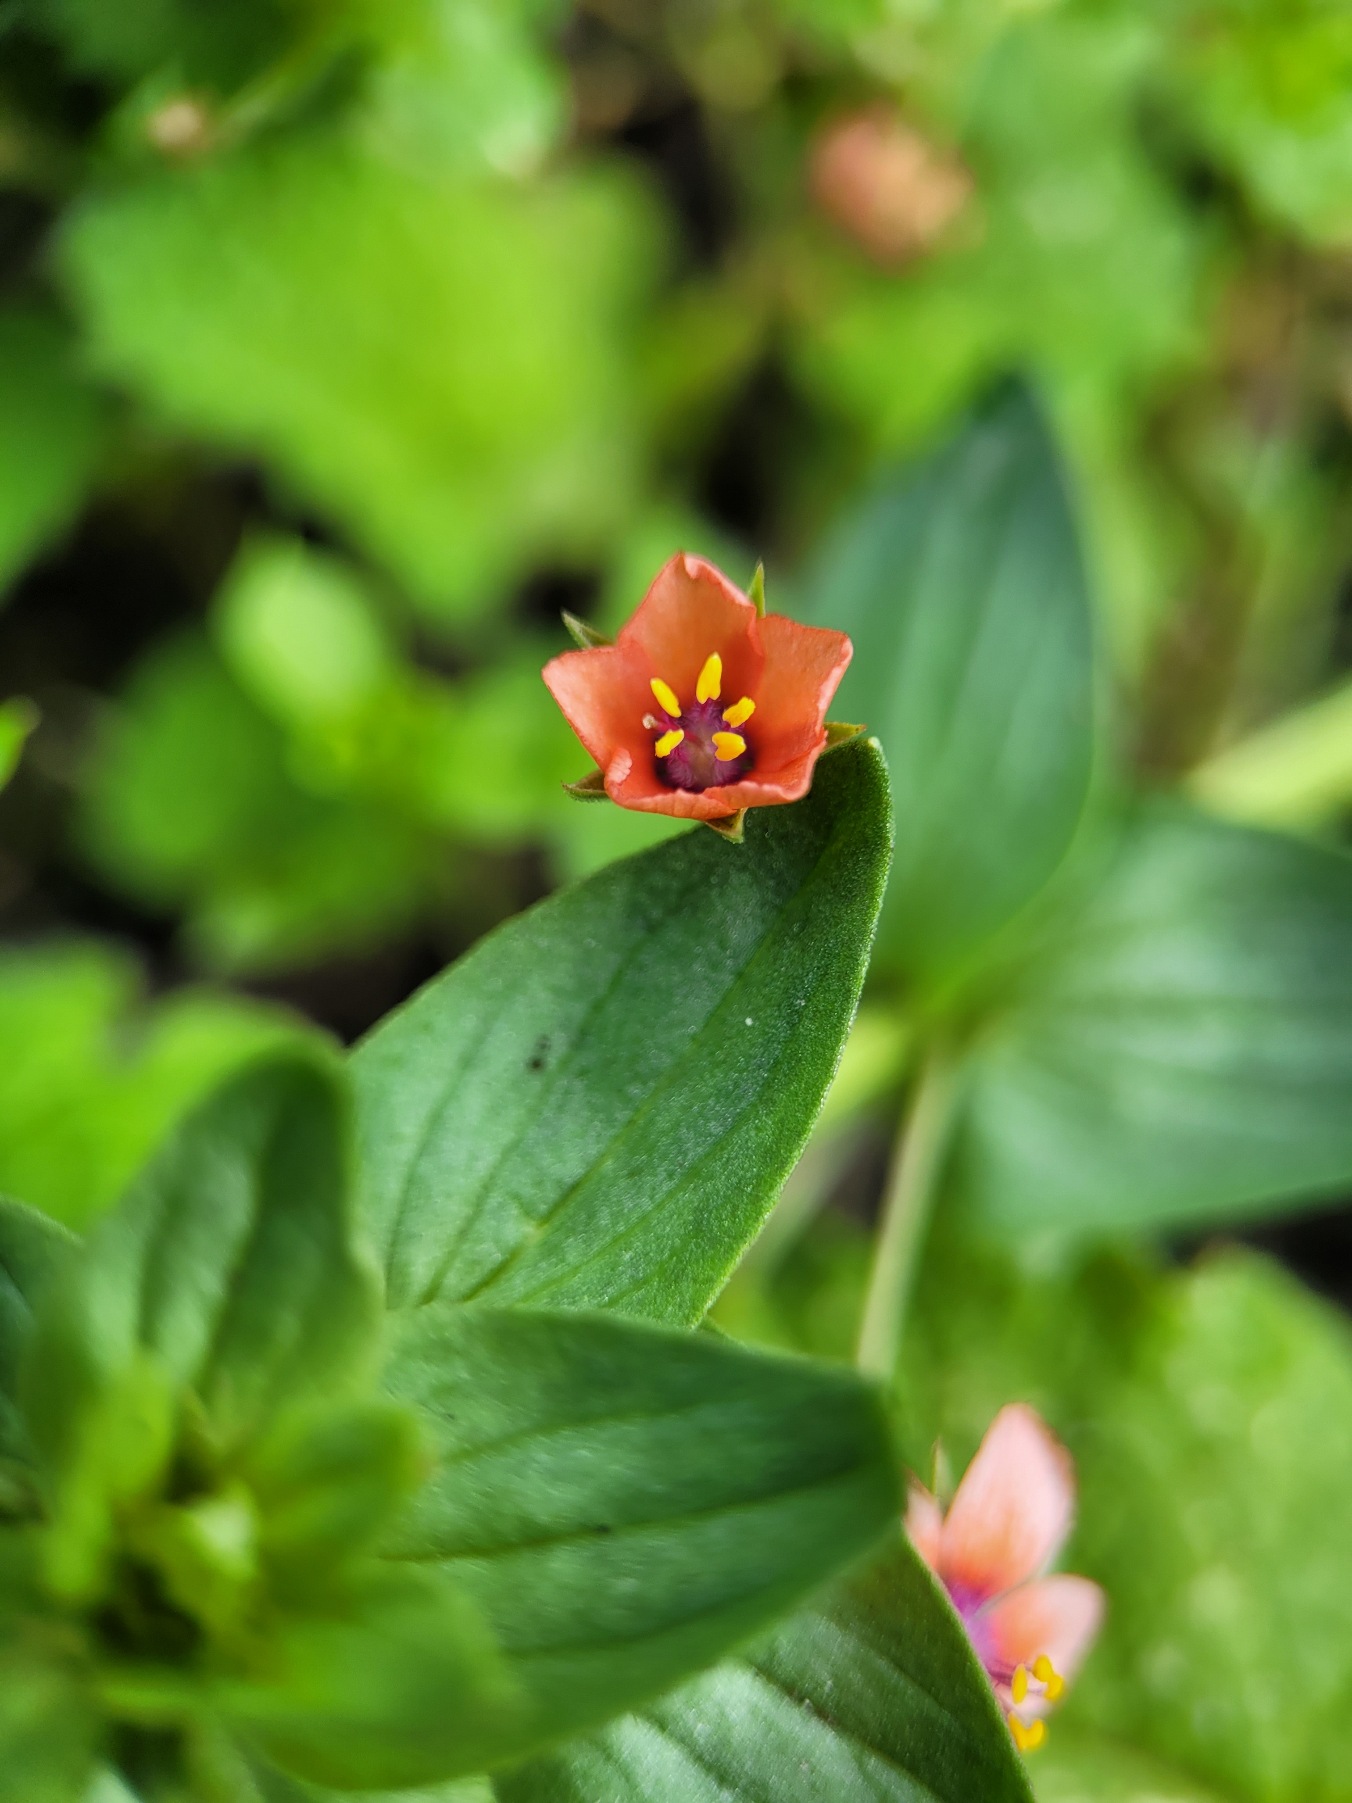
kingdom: Plantae
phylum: Tracheophyta
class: Magnoliopsida
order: Ericales
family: Primulaceae
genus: Lysimachia
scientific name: Lysimachia arvensis
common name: Rød arve
